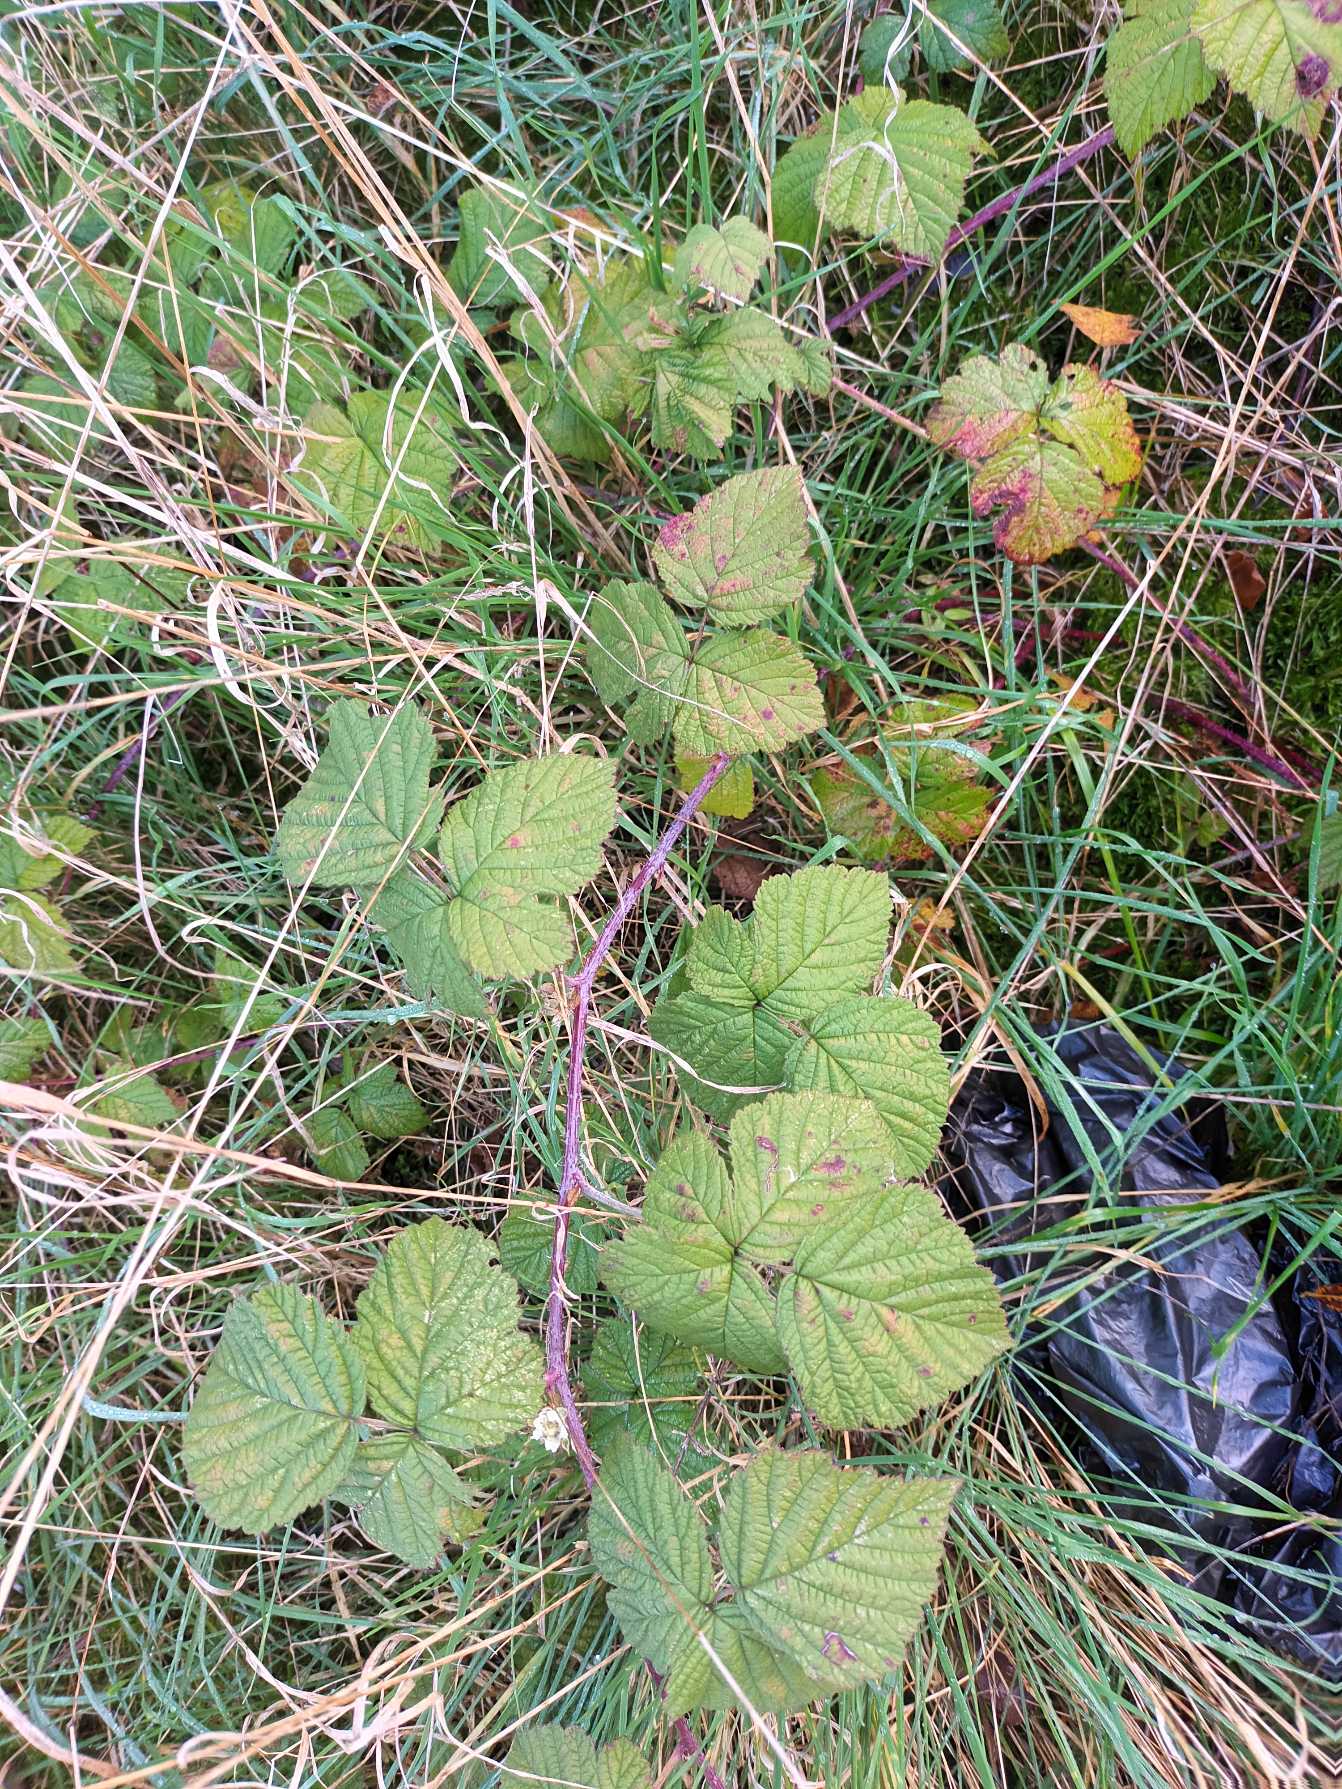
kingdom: Plantae
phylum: Tracheophyta
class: Magnoliopsida
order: Rosales
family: Rosaceae
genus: Rubus
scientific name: Rubus caesius
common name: Korbær
